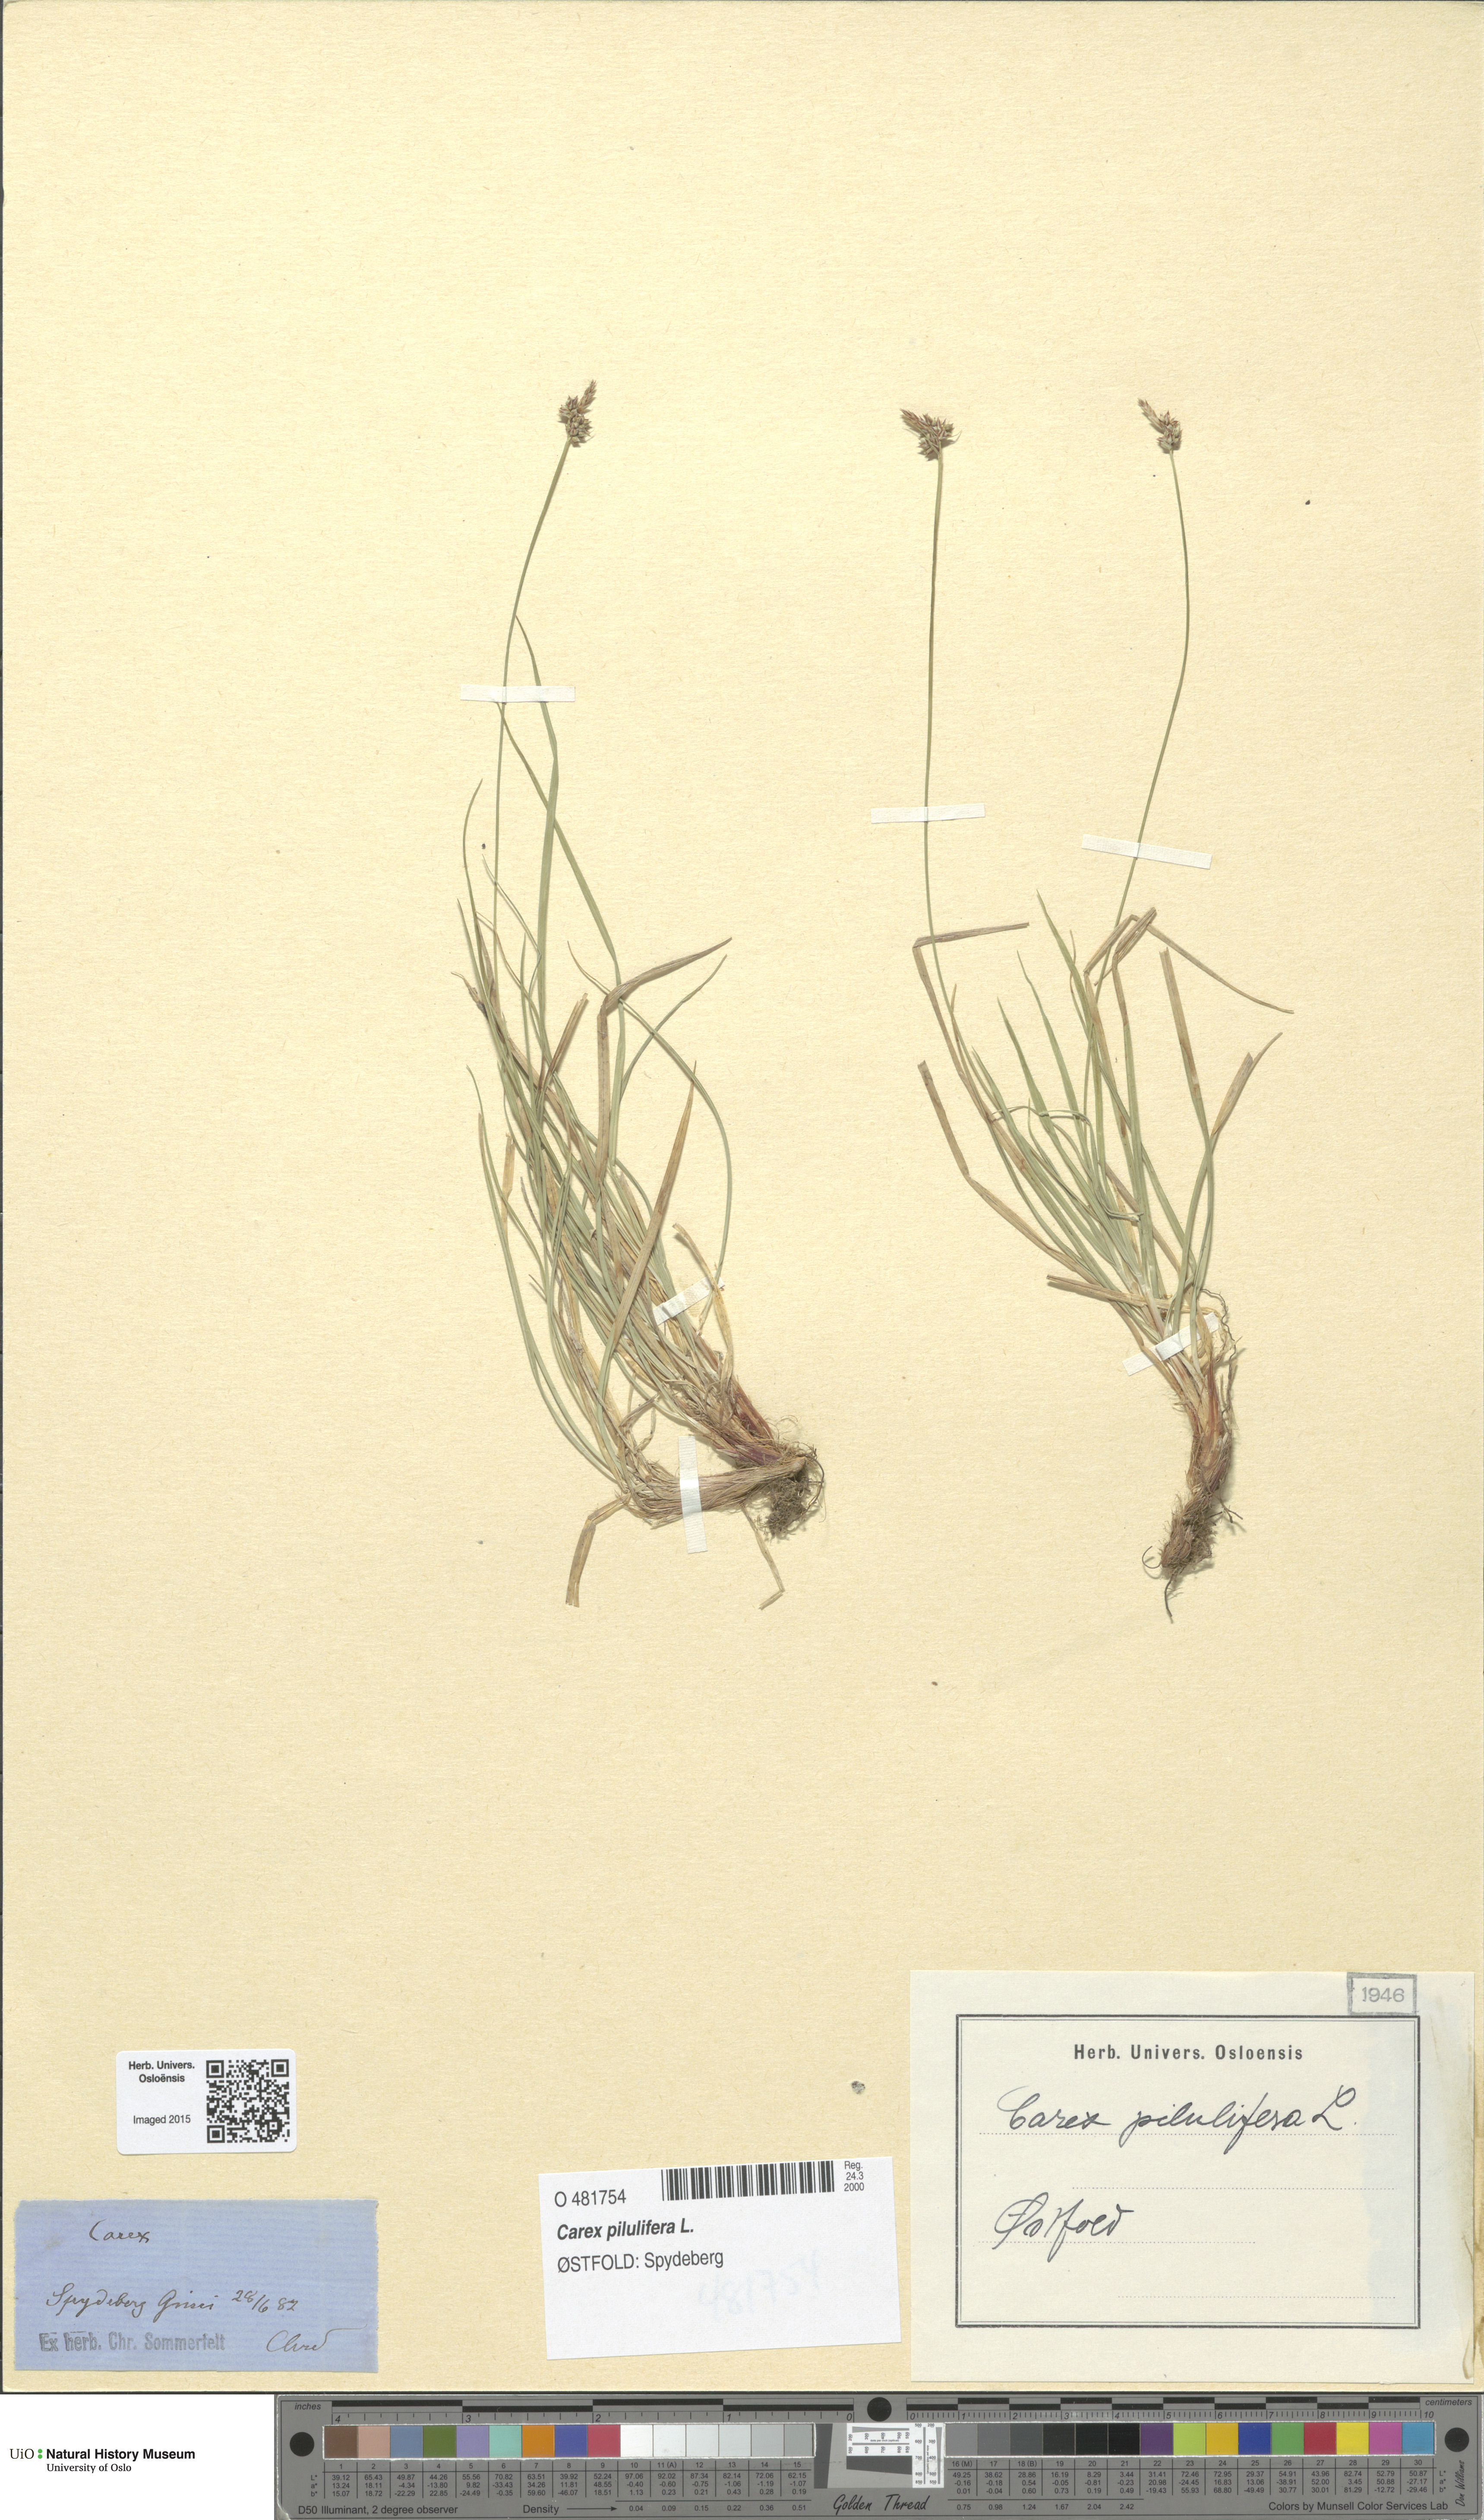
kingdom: Plantae
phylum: Tracheophyta
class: Liliopsida
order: Poales
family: Cyperaceae
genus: Carex
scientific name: Carex pilulifera
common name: Pill sedge
